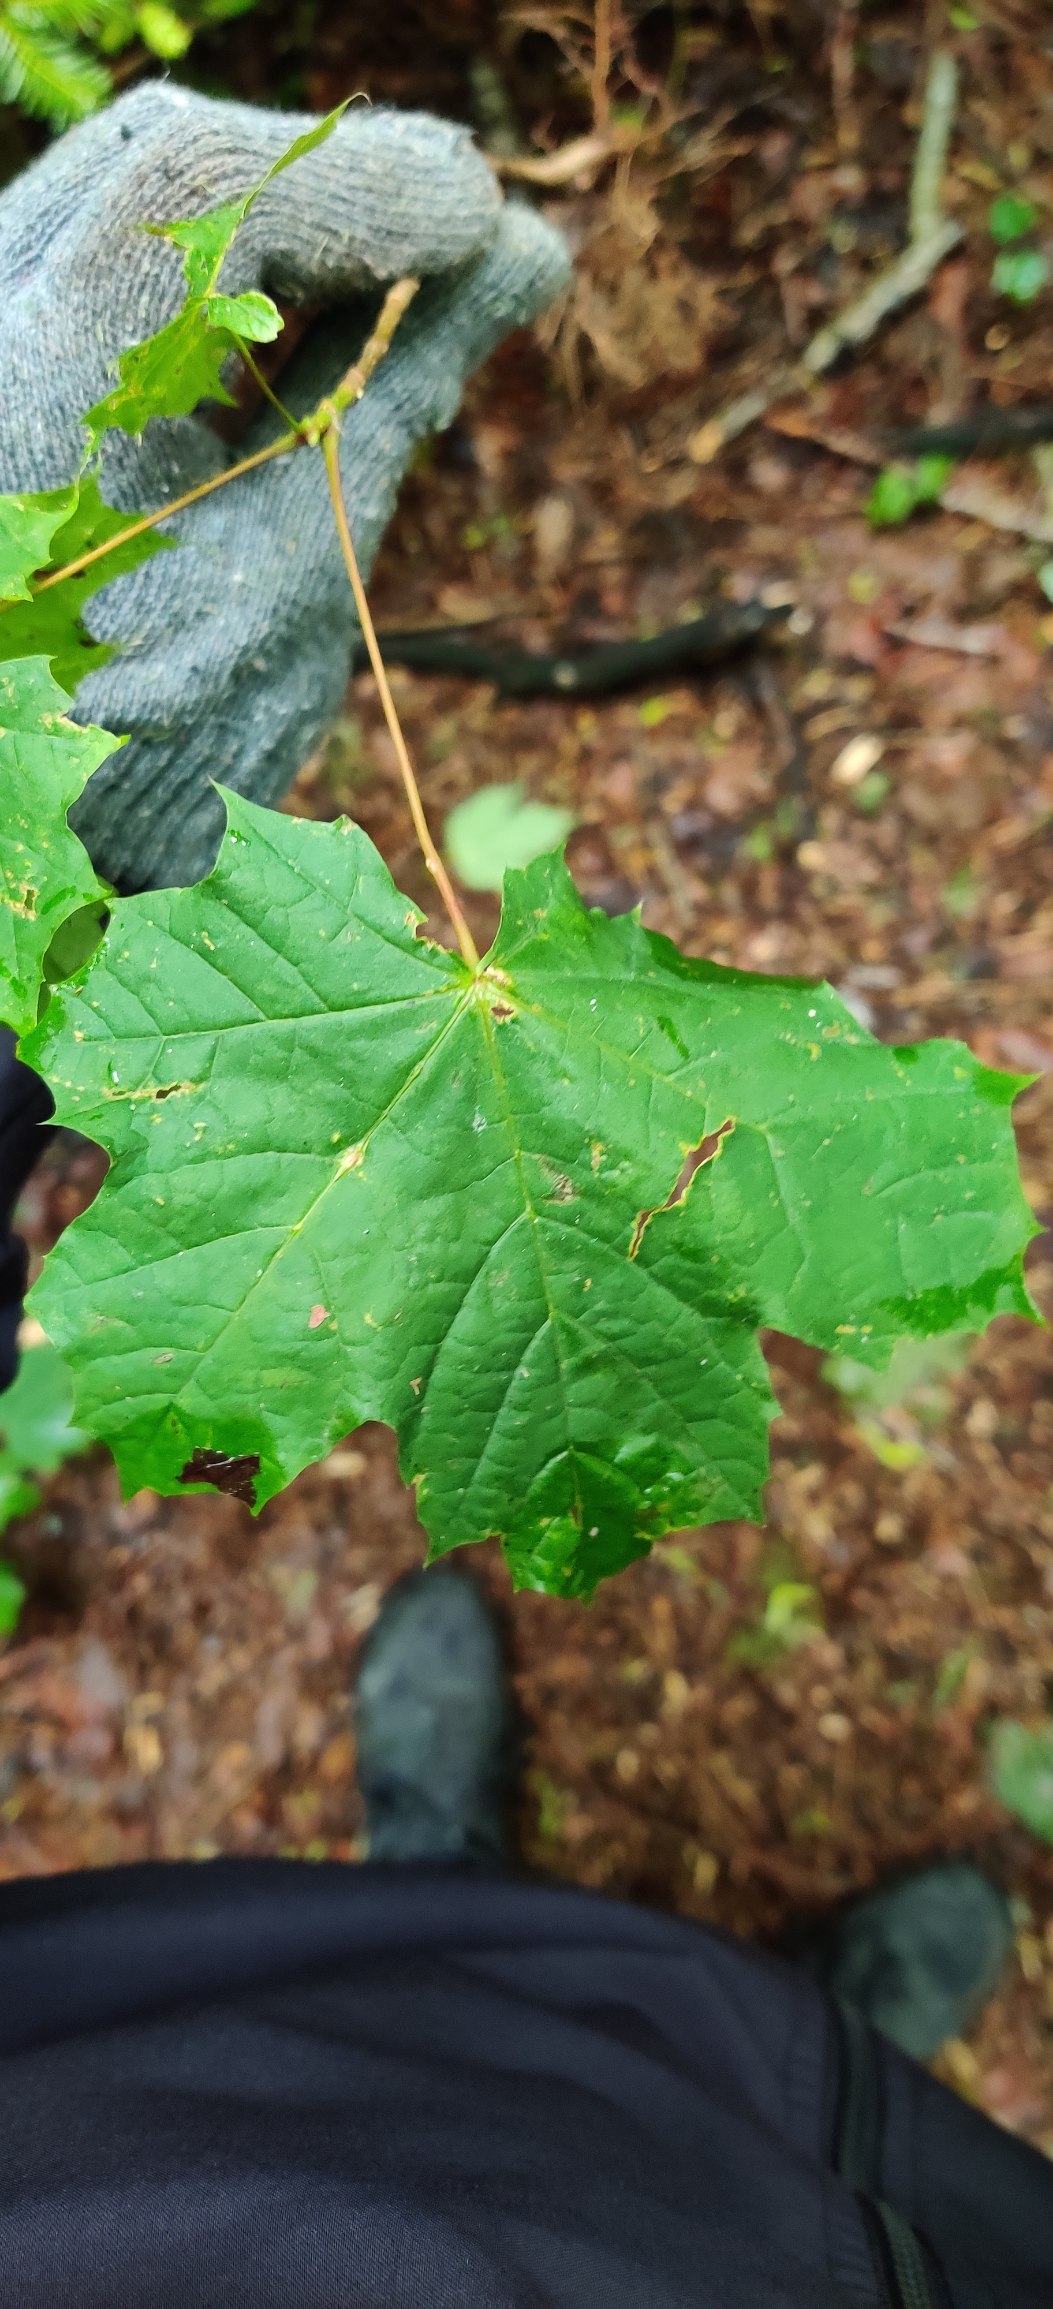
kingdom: Plantae
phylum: Tracheophyta
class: Magnoliopsida
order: Sapindales
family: Sapindaceae
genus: Acer
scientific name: Acer platanoides
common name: Spids-løn
